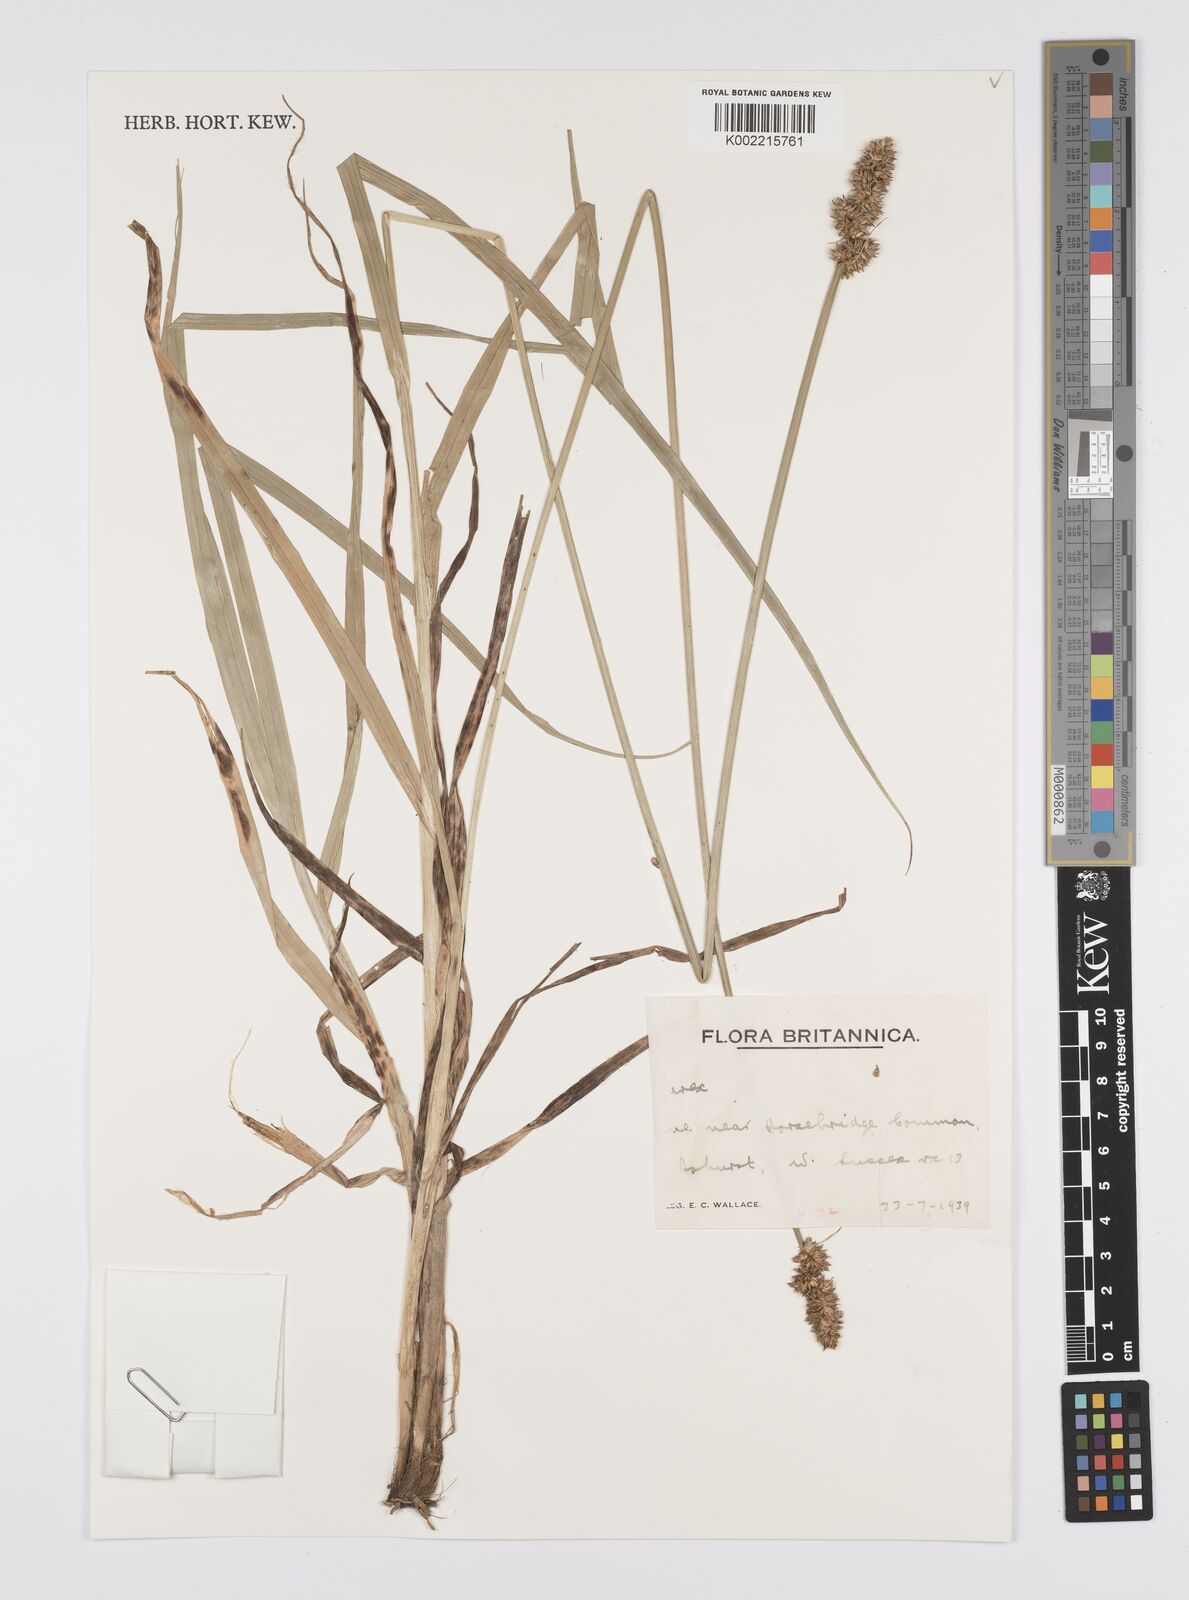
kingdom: Plantae
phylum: Tracheophyta
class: Liliopsida
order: Poales
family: Cyperaceae
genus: Carex
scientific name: Carex
